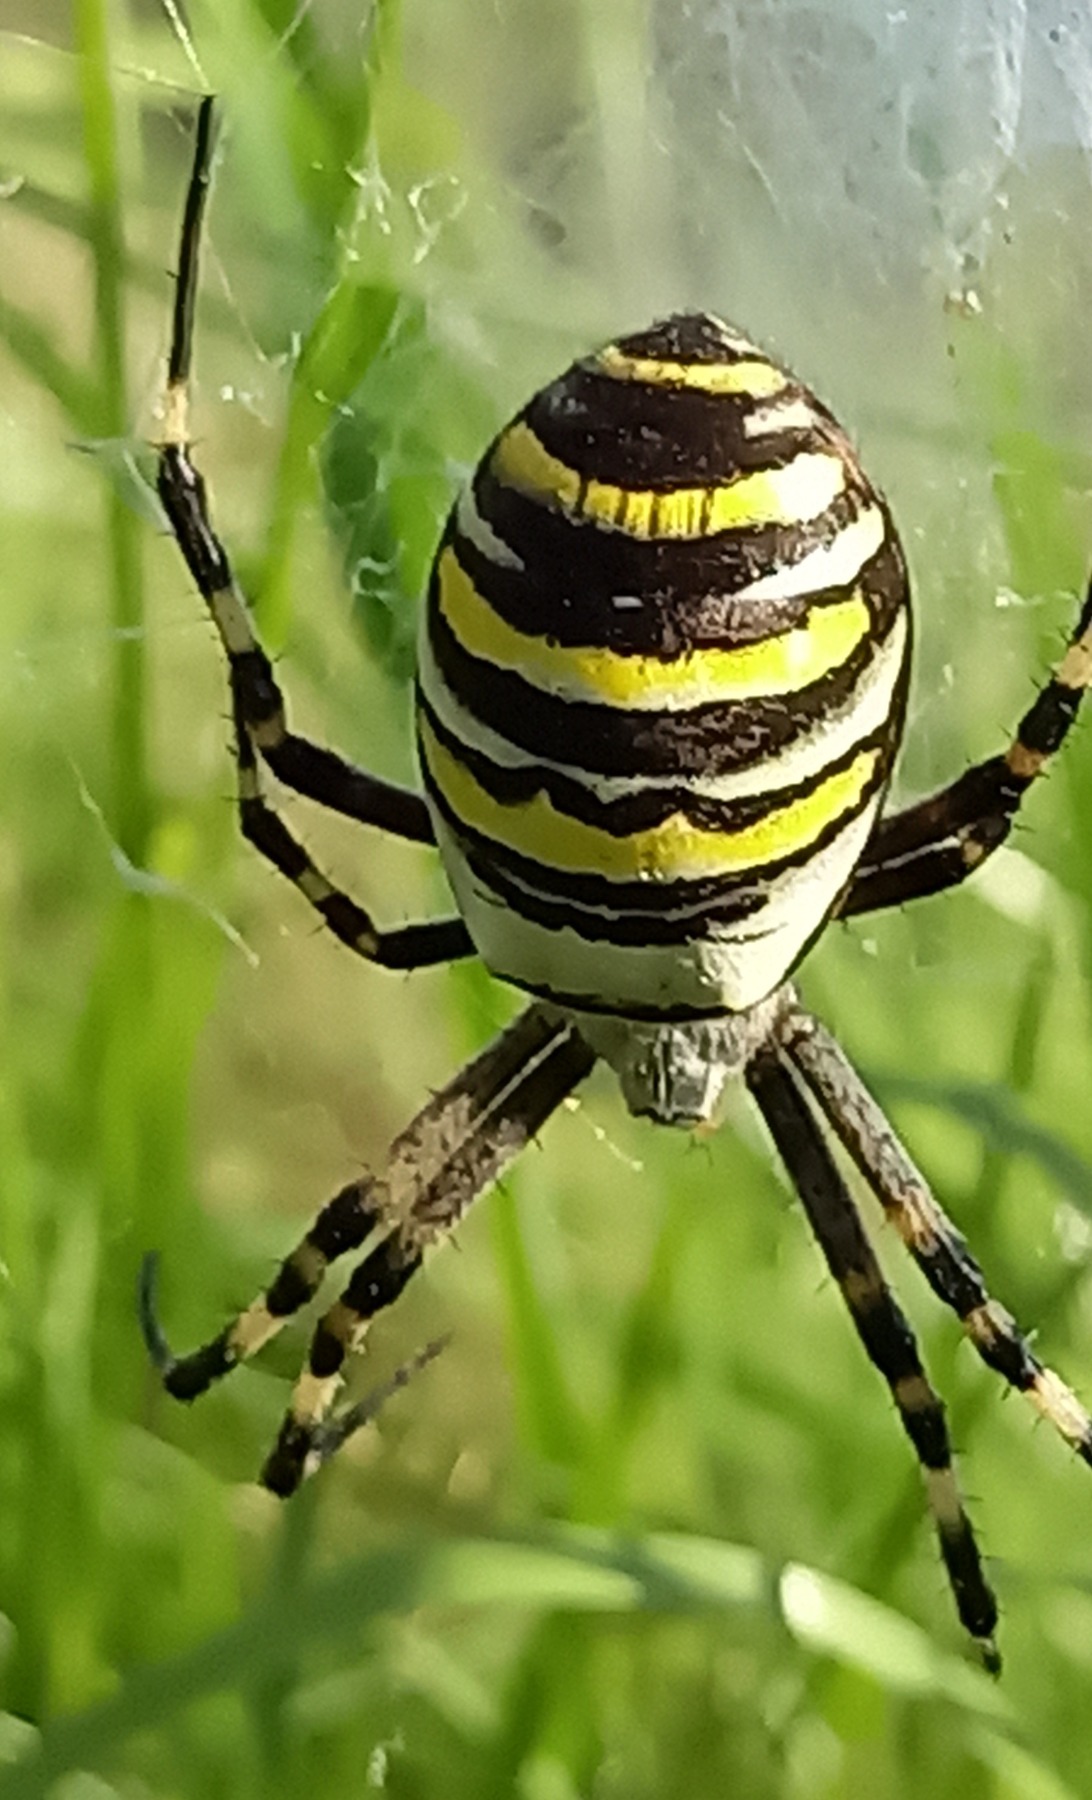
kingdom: Animalia
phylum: Arthropoda
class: Arachnida
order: Araneae
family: Araneidae
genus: Argiope
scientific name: Argiope bruennichi
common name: Hvepseedderkop
